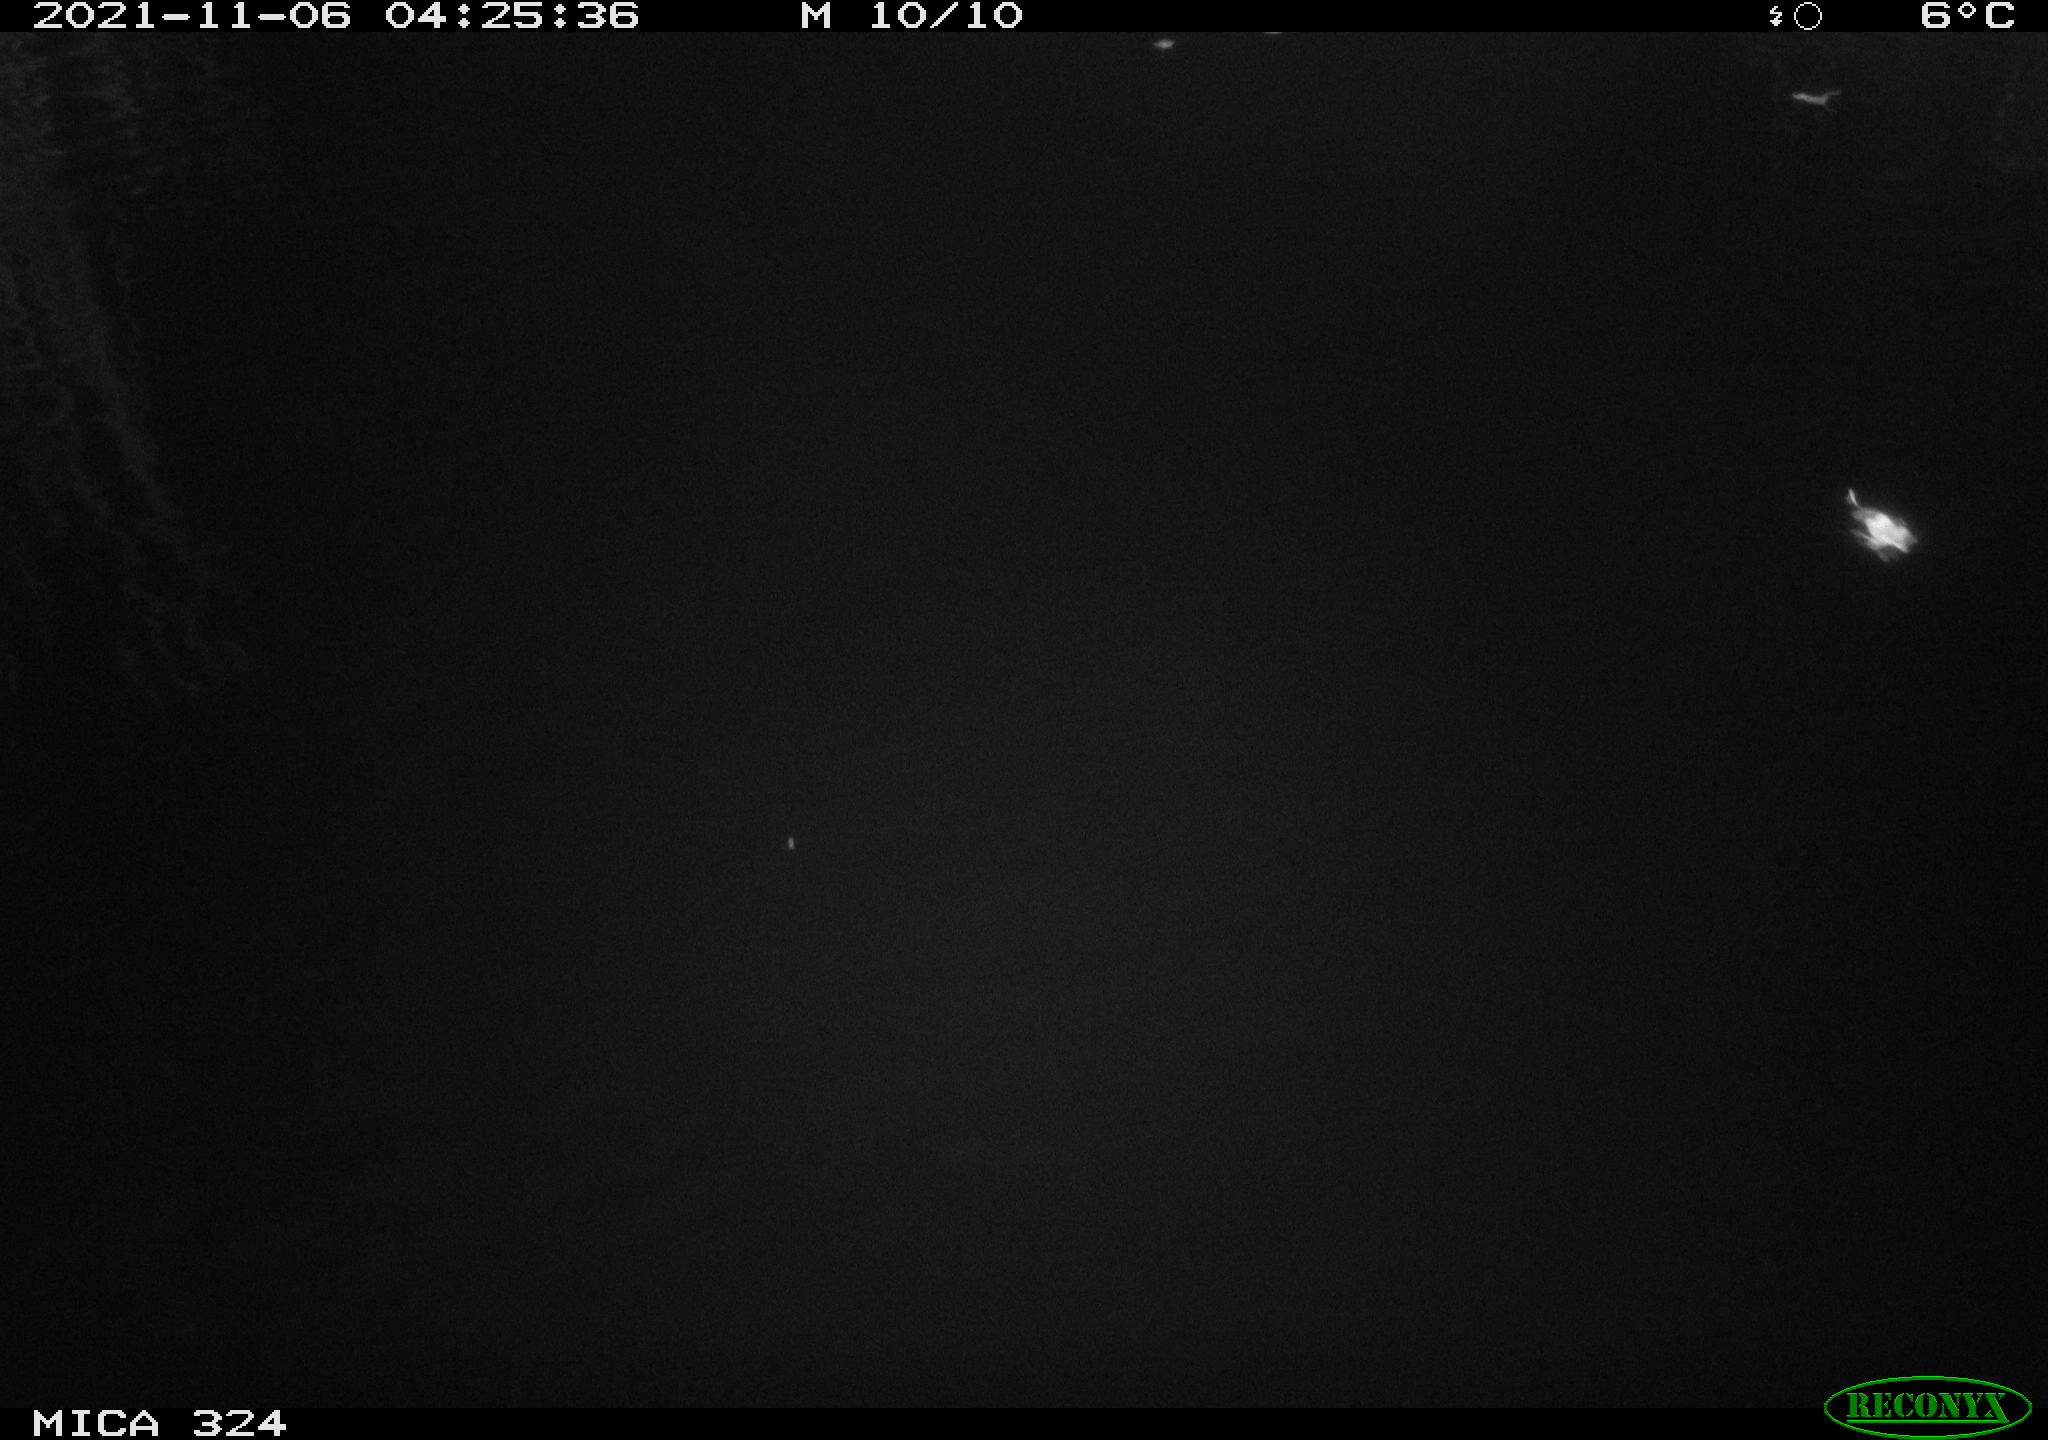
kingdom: Animalia
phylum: Chordata
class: Mammalia
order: Rodentia
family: Cricetidae
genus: Ondatra
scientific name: Ondatra zibethicus
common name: Muskrat
